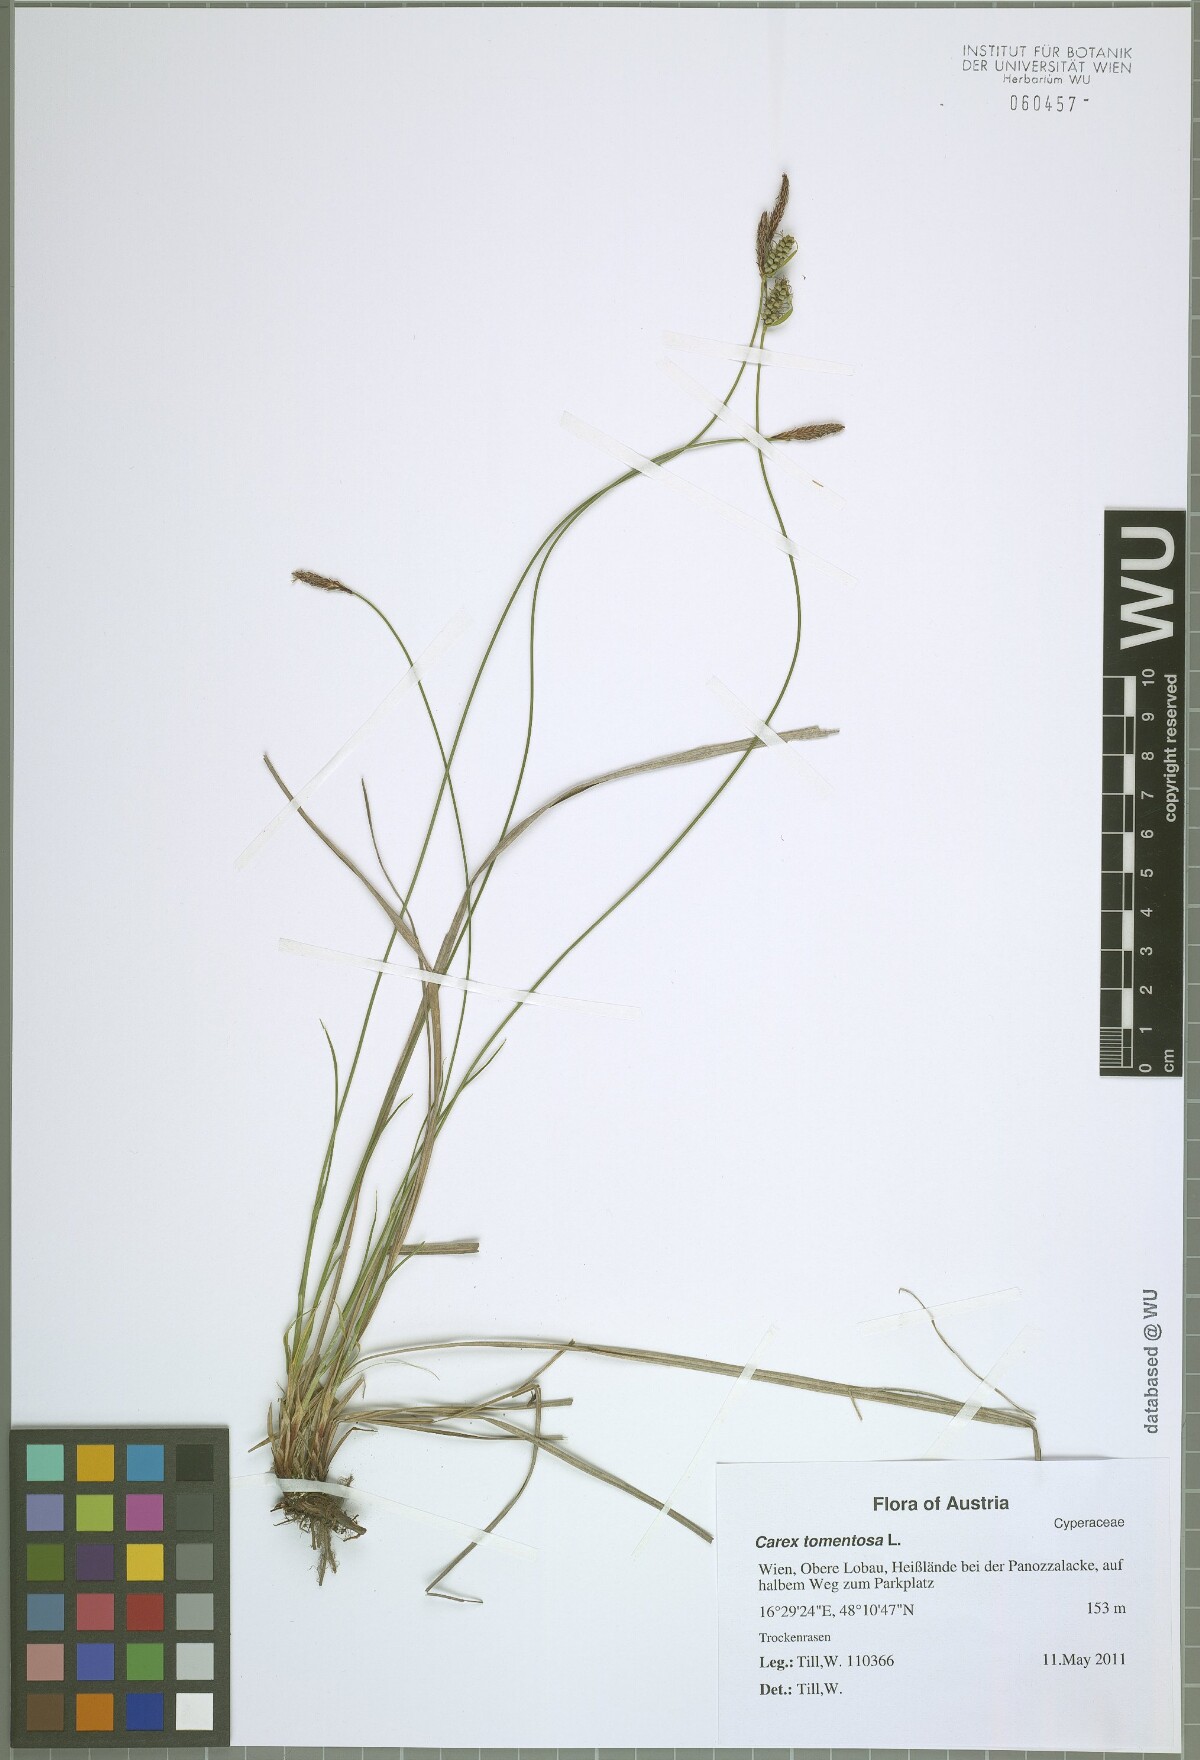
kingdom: Plantae
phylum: Tracheophyta
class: Liliopsida
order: Poales
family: Cyperaceae
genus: Carex
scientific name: Carex tomentosa
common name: Downy-fruited sedge
